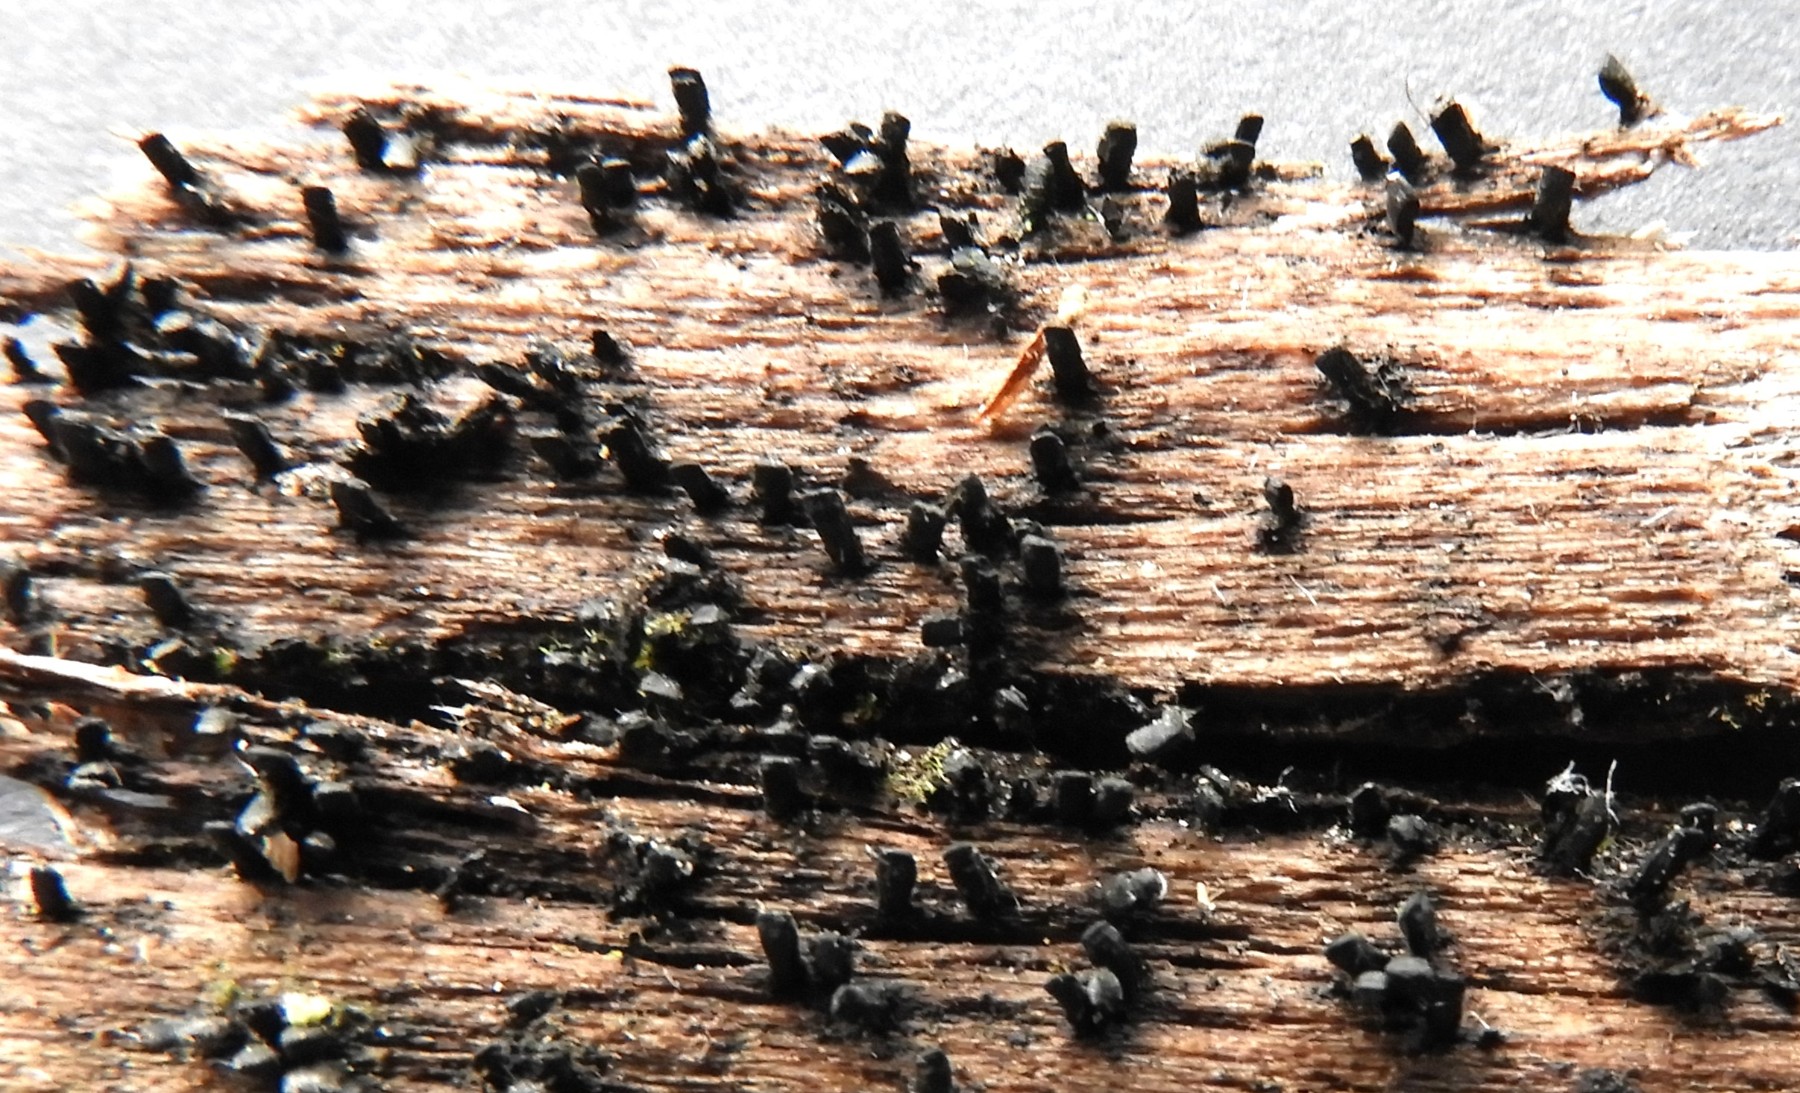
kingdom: Fungi
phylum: Ascomycota
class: Eurotiomycetes
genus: Glyphium
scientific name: Glyphium elatum
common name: kuløkse
